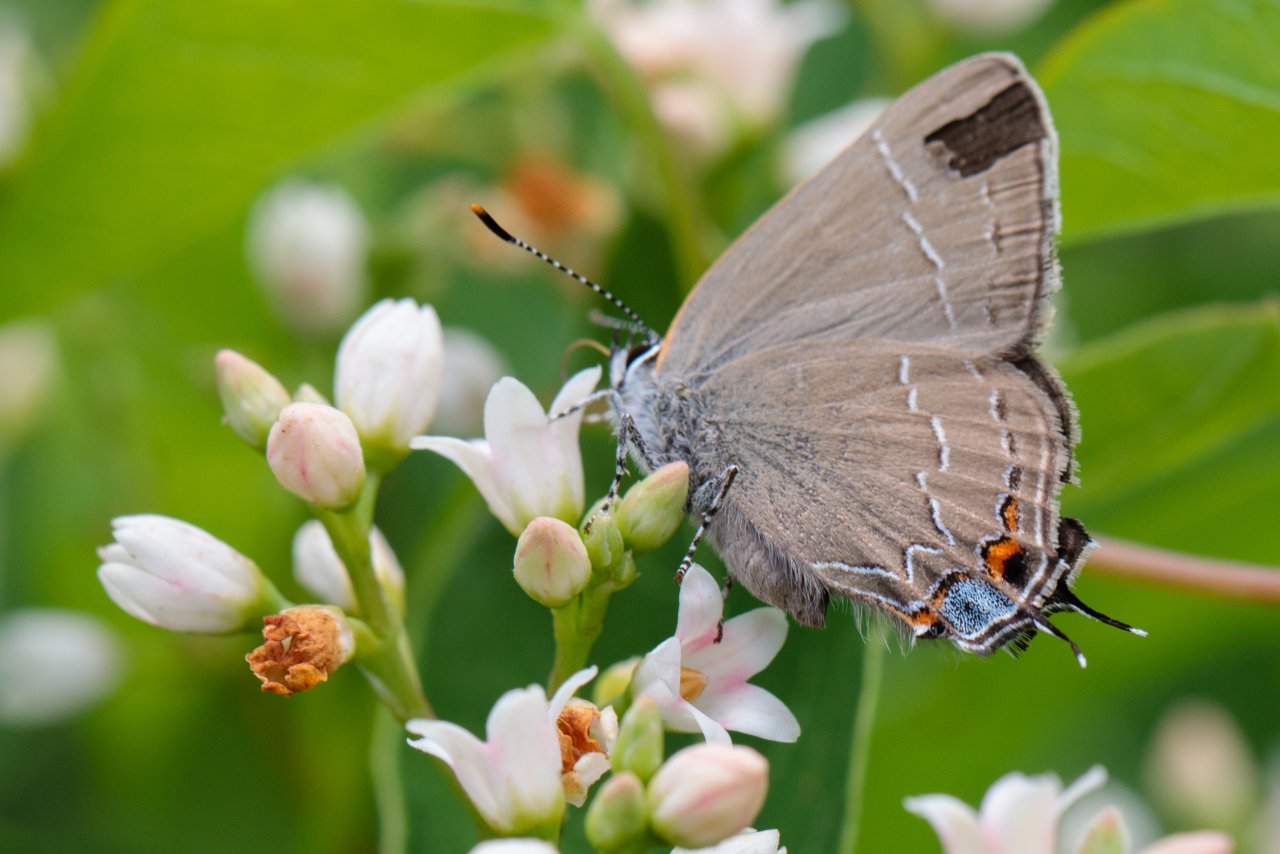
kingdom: Animalia
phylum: Arthropoda
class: Insecta
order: Lepidoptera
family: Lycaenidae
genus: Fixsenia
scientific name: Fixsenia favonius
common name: Oak Hairstreak
